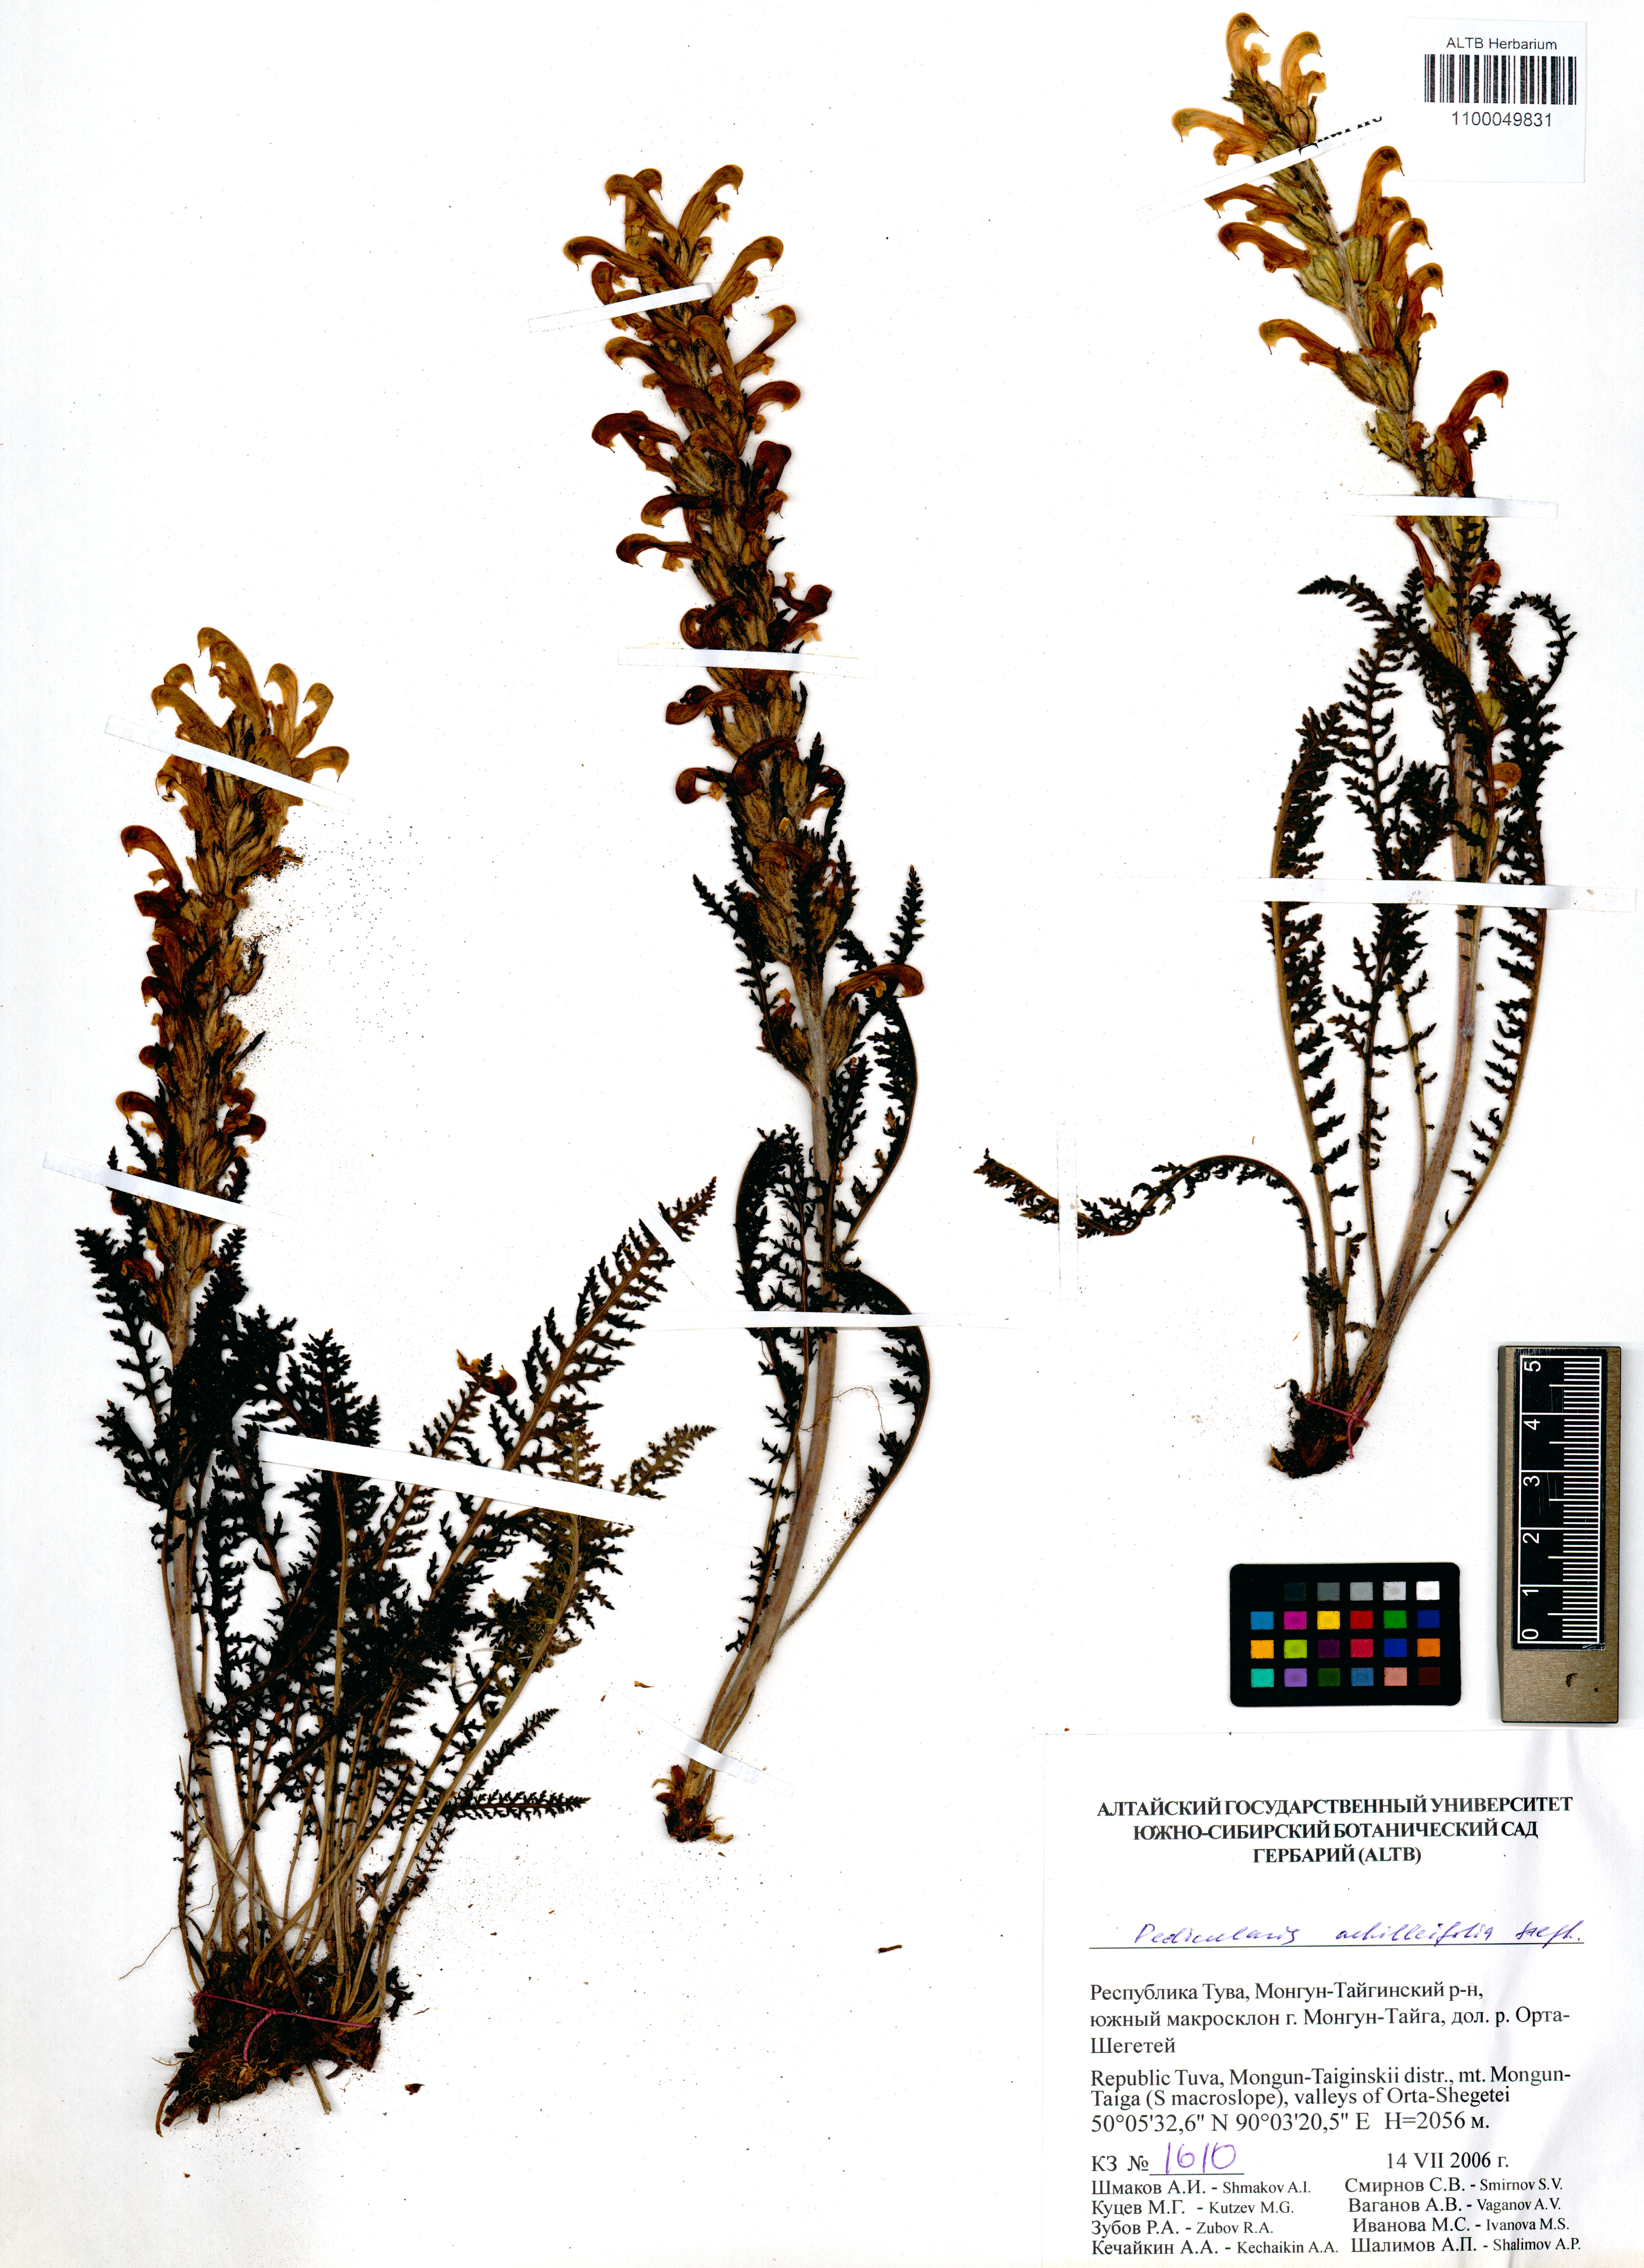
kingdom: Plantae
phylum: Tracheophyta
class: Magnoliopsida
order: Lamiales
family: Orobanchaceae
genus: Pedicularis
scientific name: Pedicularis achilleifolia
